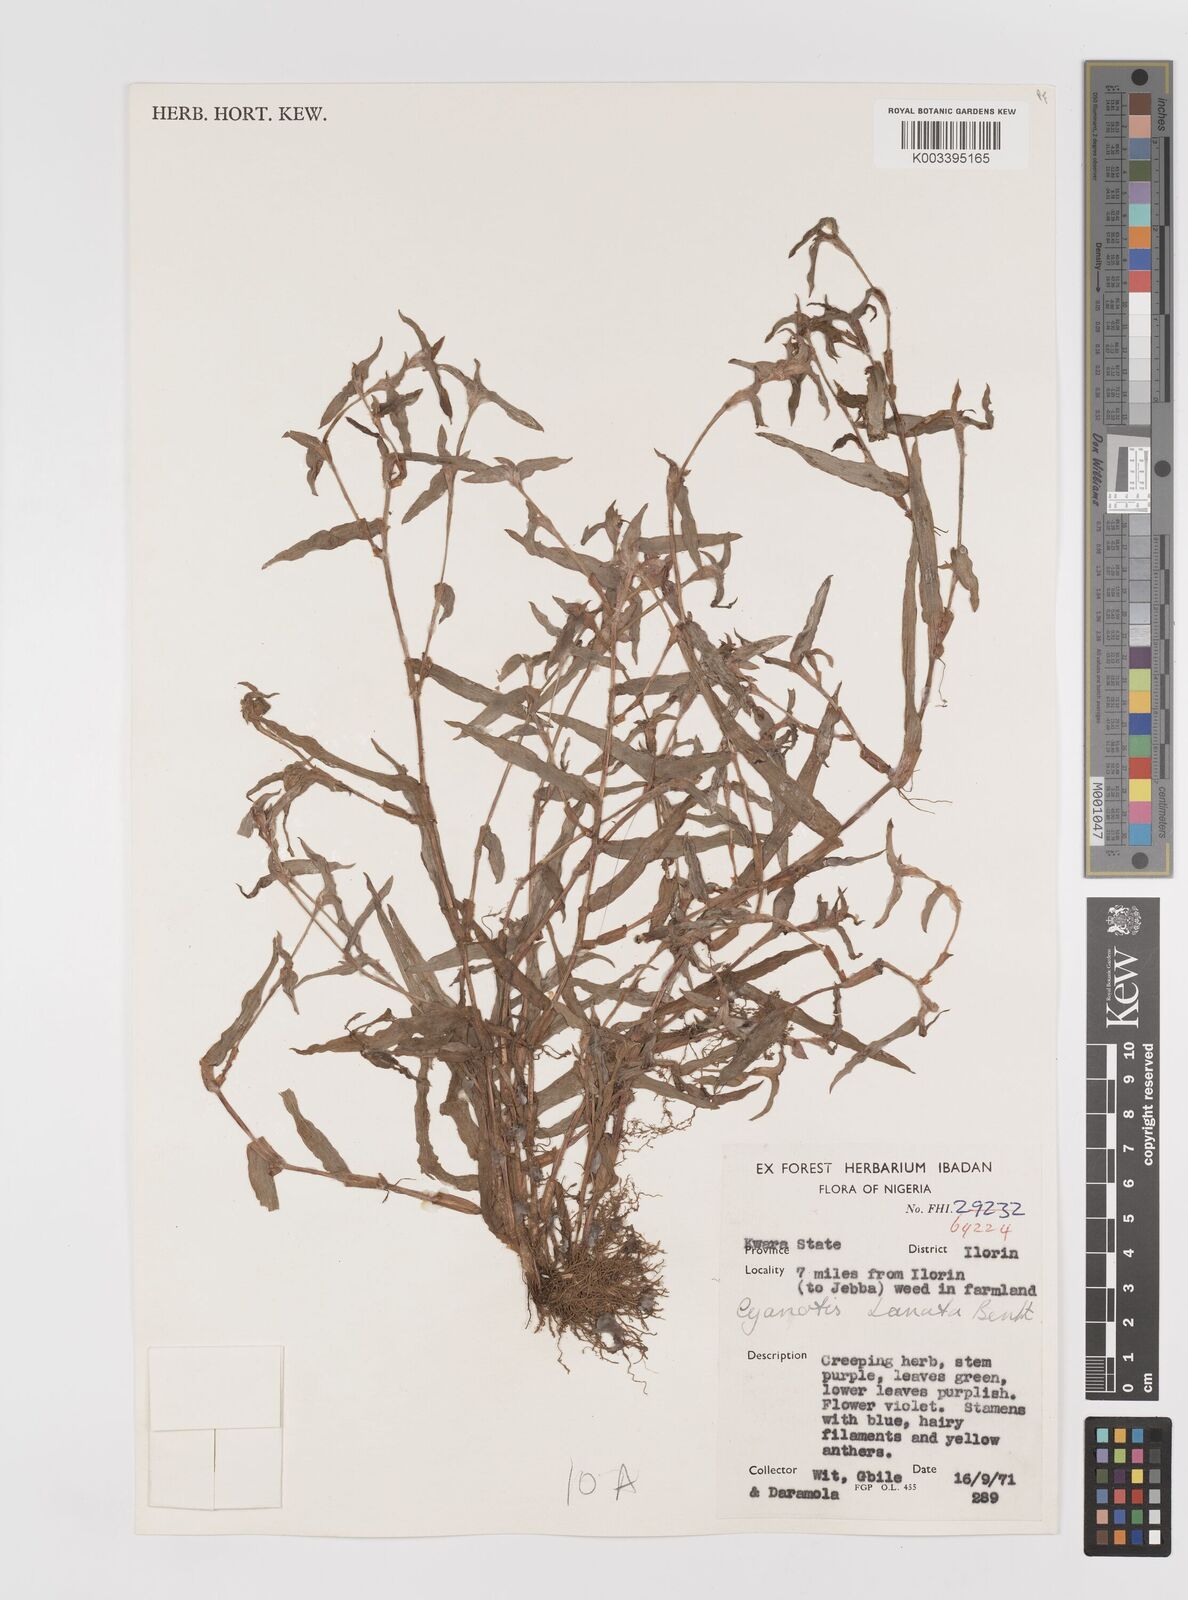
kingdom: Plantae
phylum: Tracheophyta
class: Liliopsida
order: Commelinales
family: Commelinaceae
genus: Cyanotis
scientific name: Cyanotis lanata
